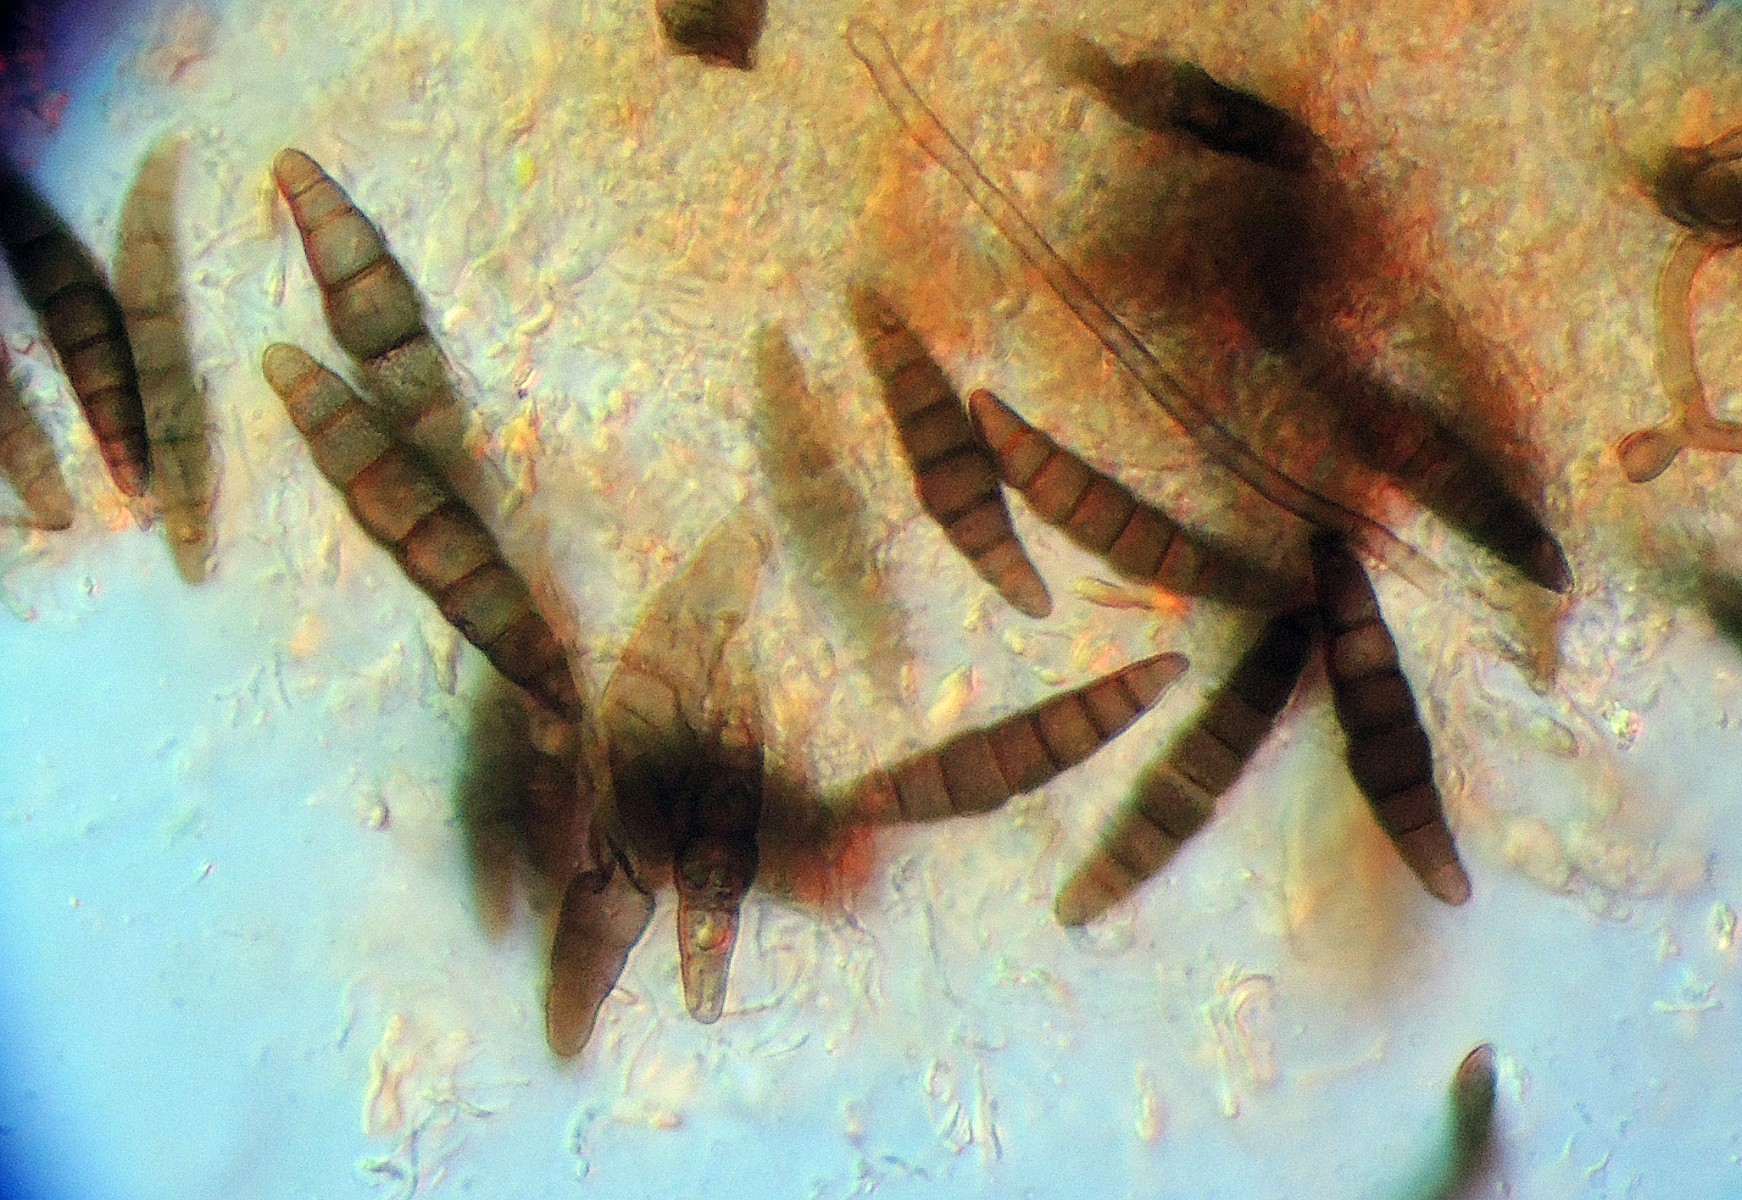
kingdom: Fungi
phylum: Ascomycota
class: Dothideomycetes
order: Pleosporales
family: Phaeosphaeriaceae
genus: Phaeosphaeria
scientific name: Phaeosphaeria herpotrichoides
